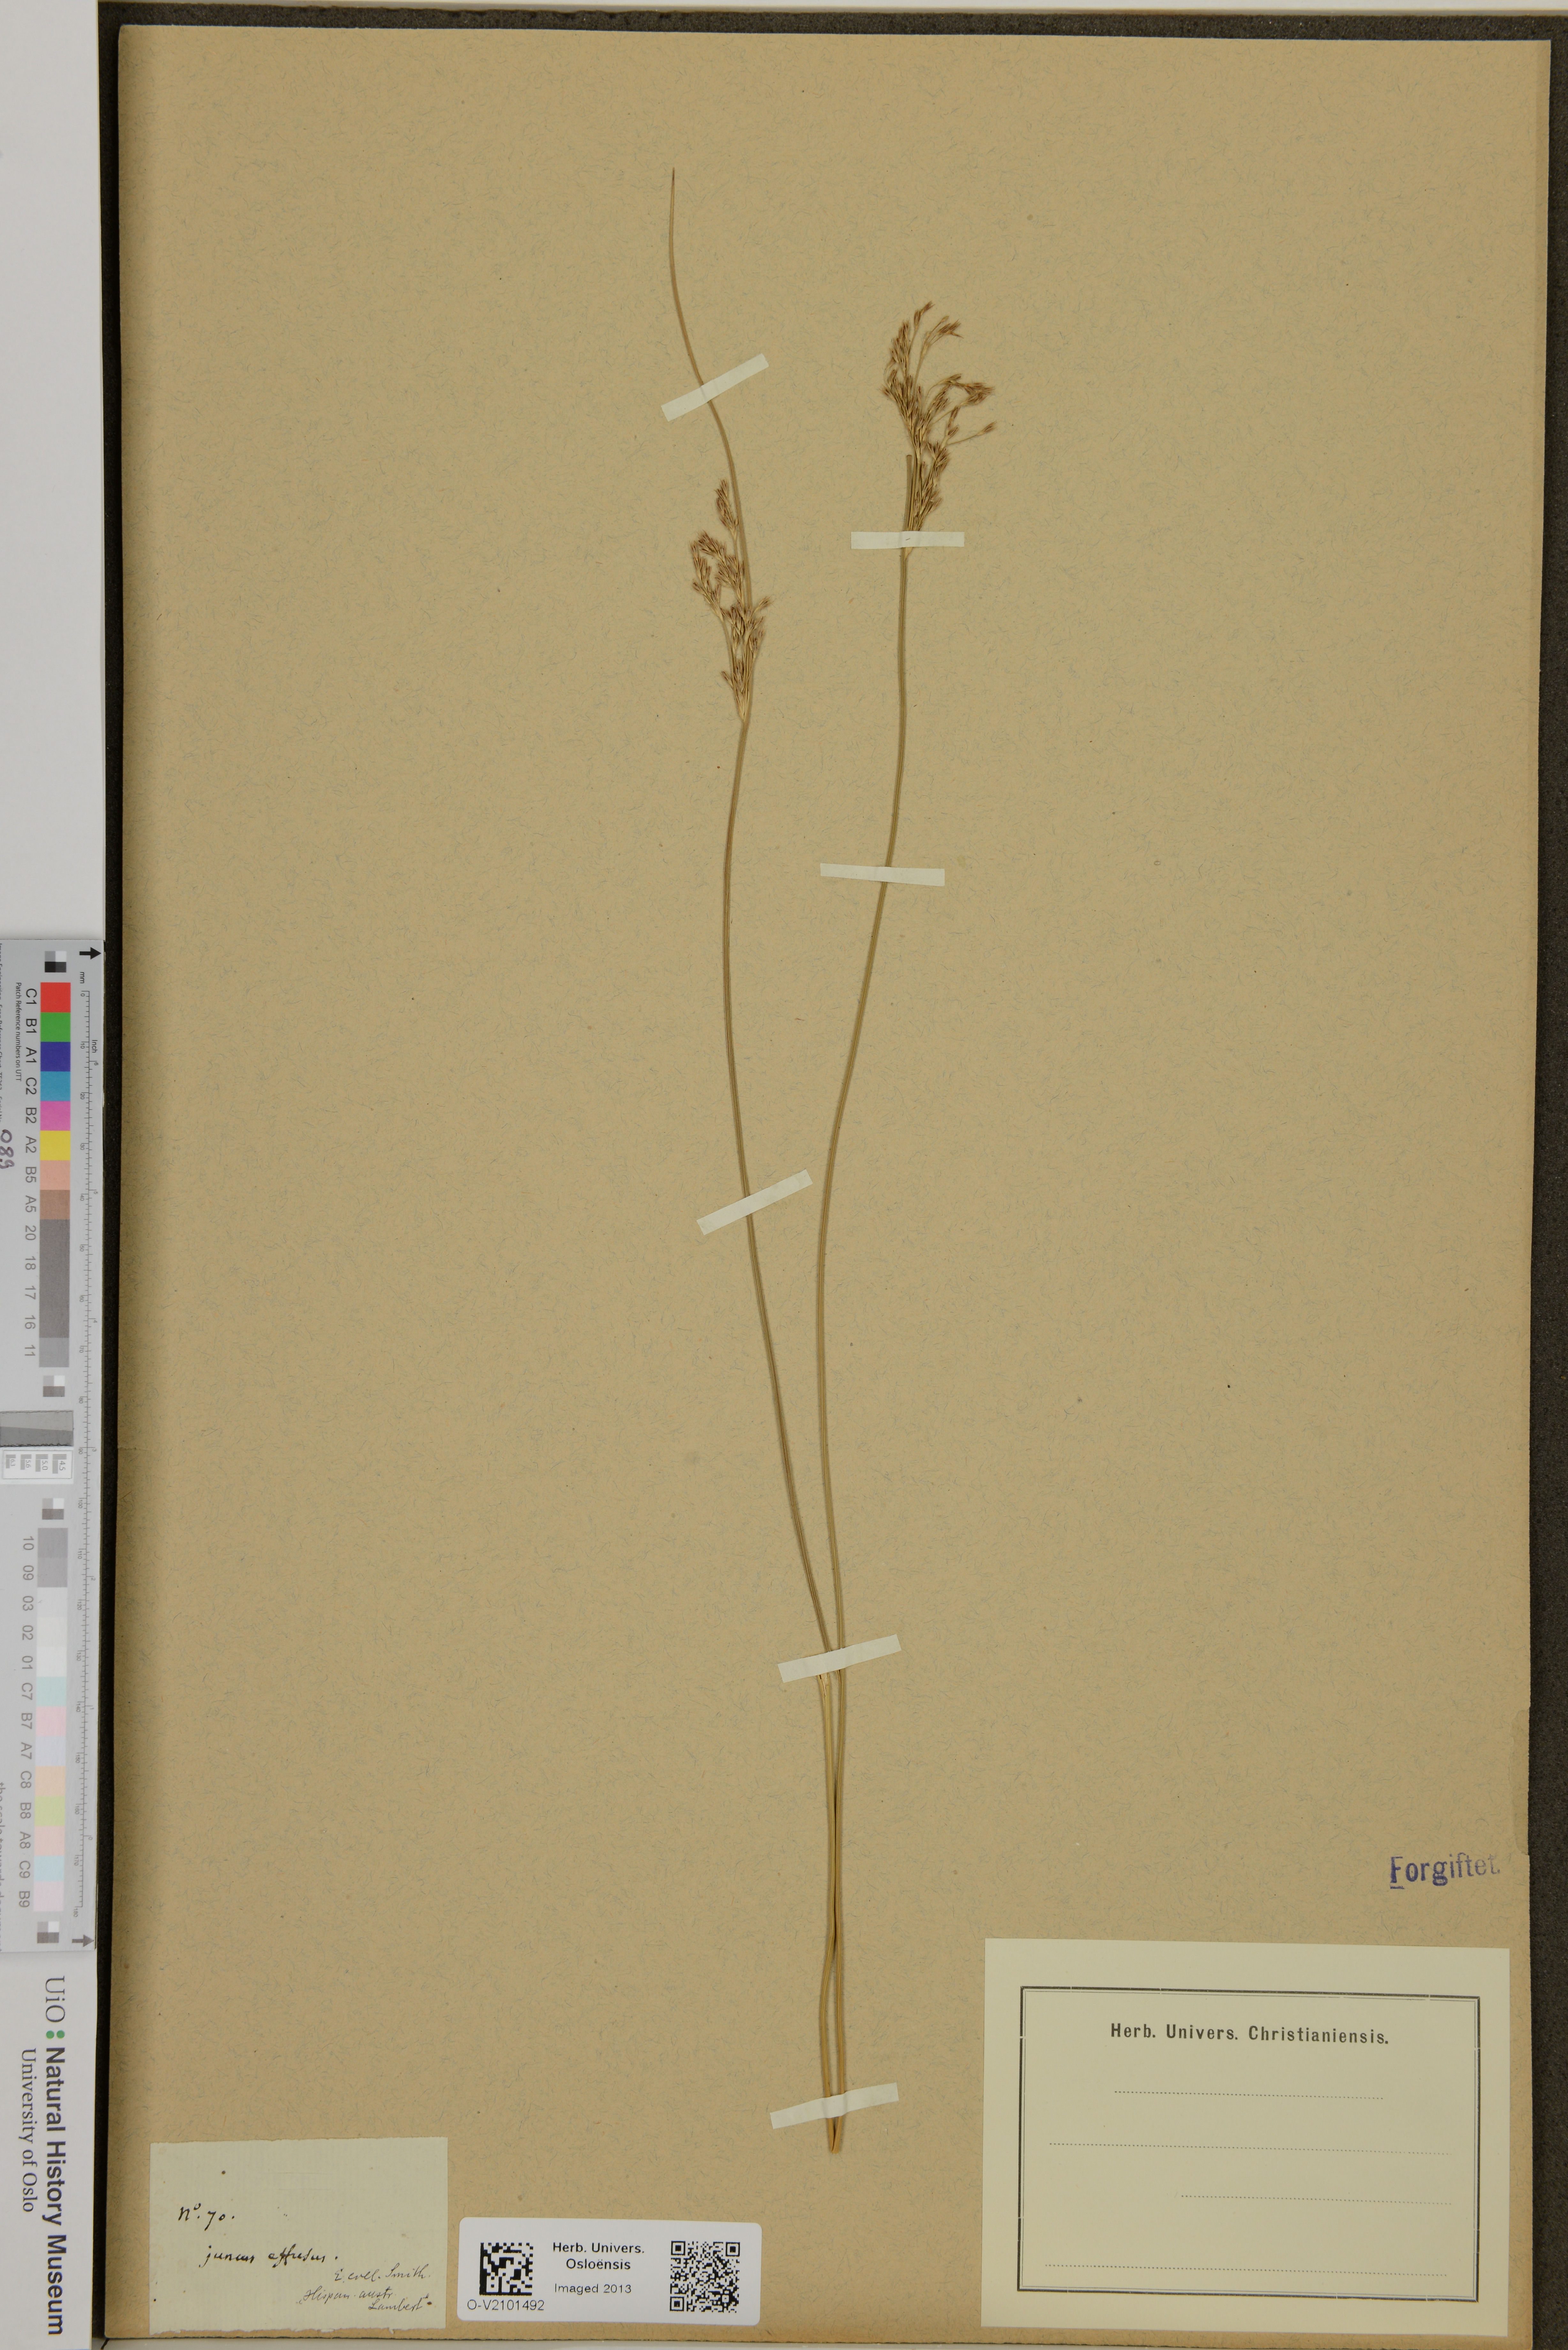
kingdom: Plantae
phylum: Tracheophyta
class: Liliopsida
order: Poales
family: Juncaceae
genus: Juncus
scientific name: Juncus effusus
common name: Soft rush
